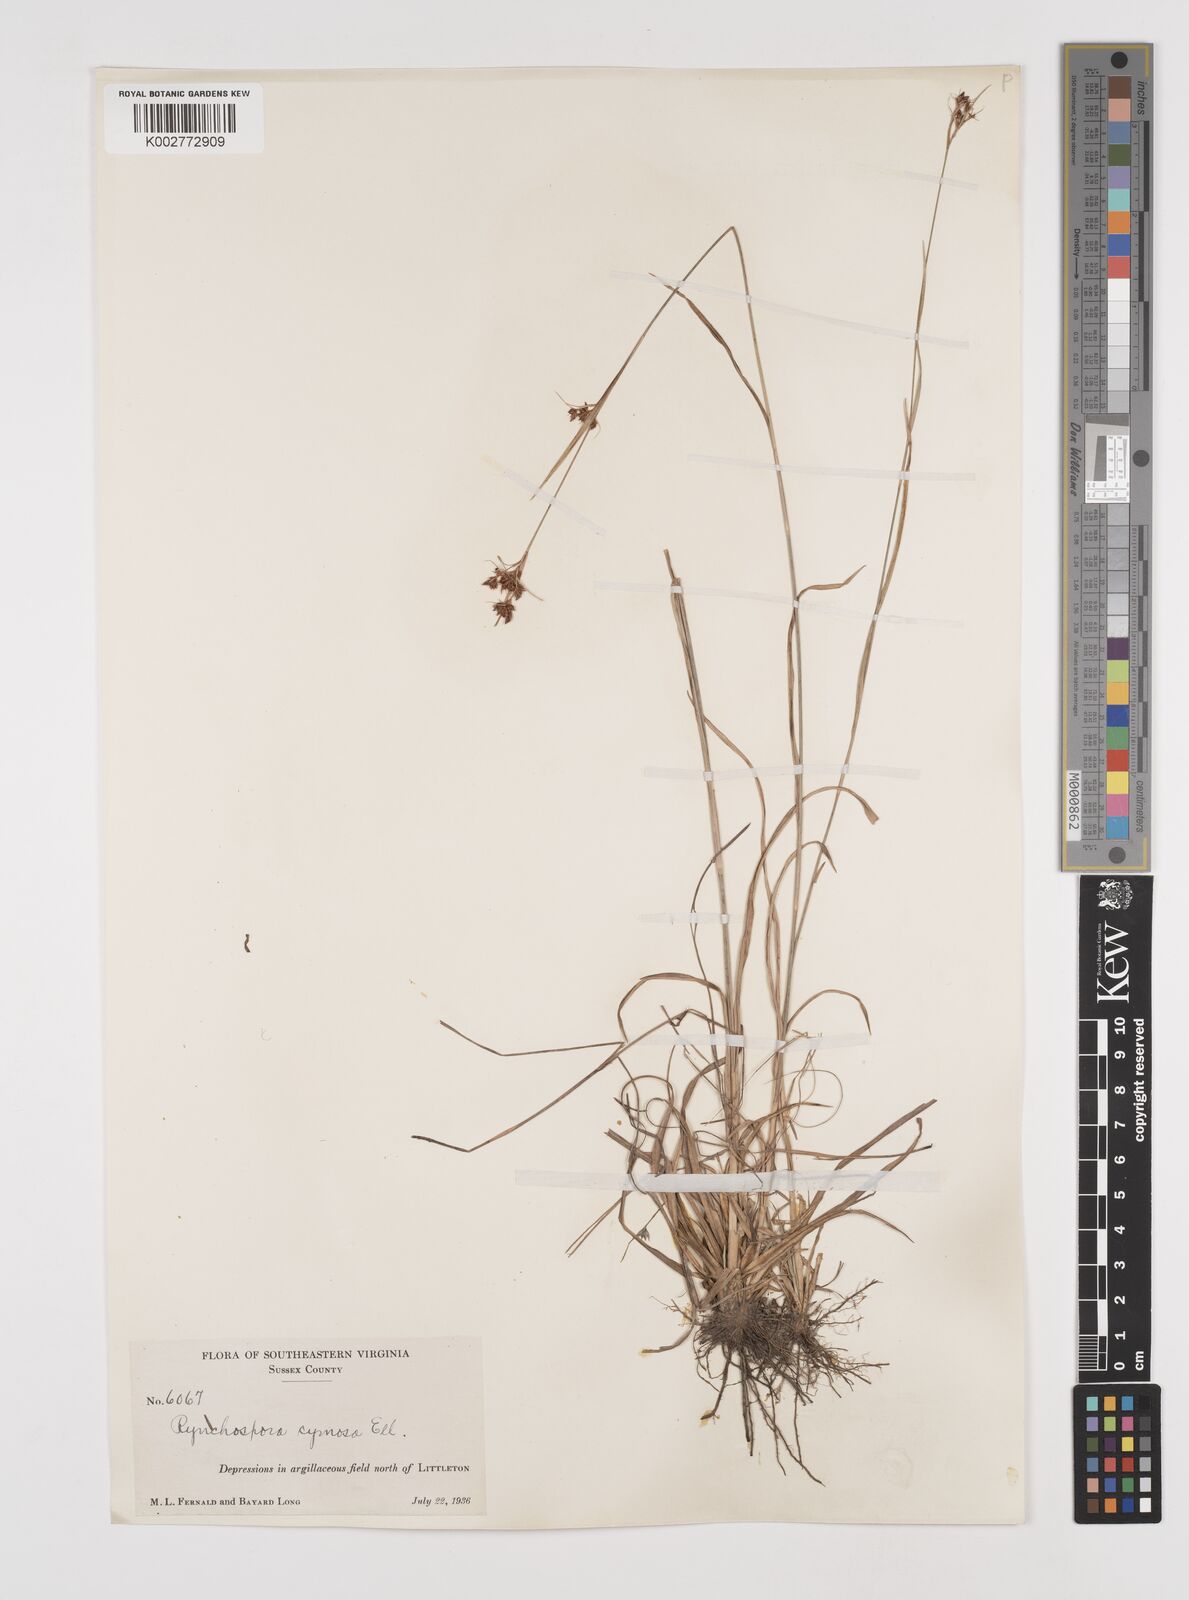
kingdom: Plantae
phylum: Tracheophyta
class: Liliopsida
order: Poales
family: Cyperaceae
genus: Scirpus
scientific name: Scirpus polyphyllus
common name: Leafy bulrush
